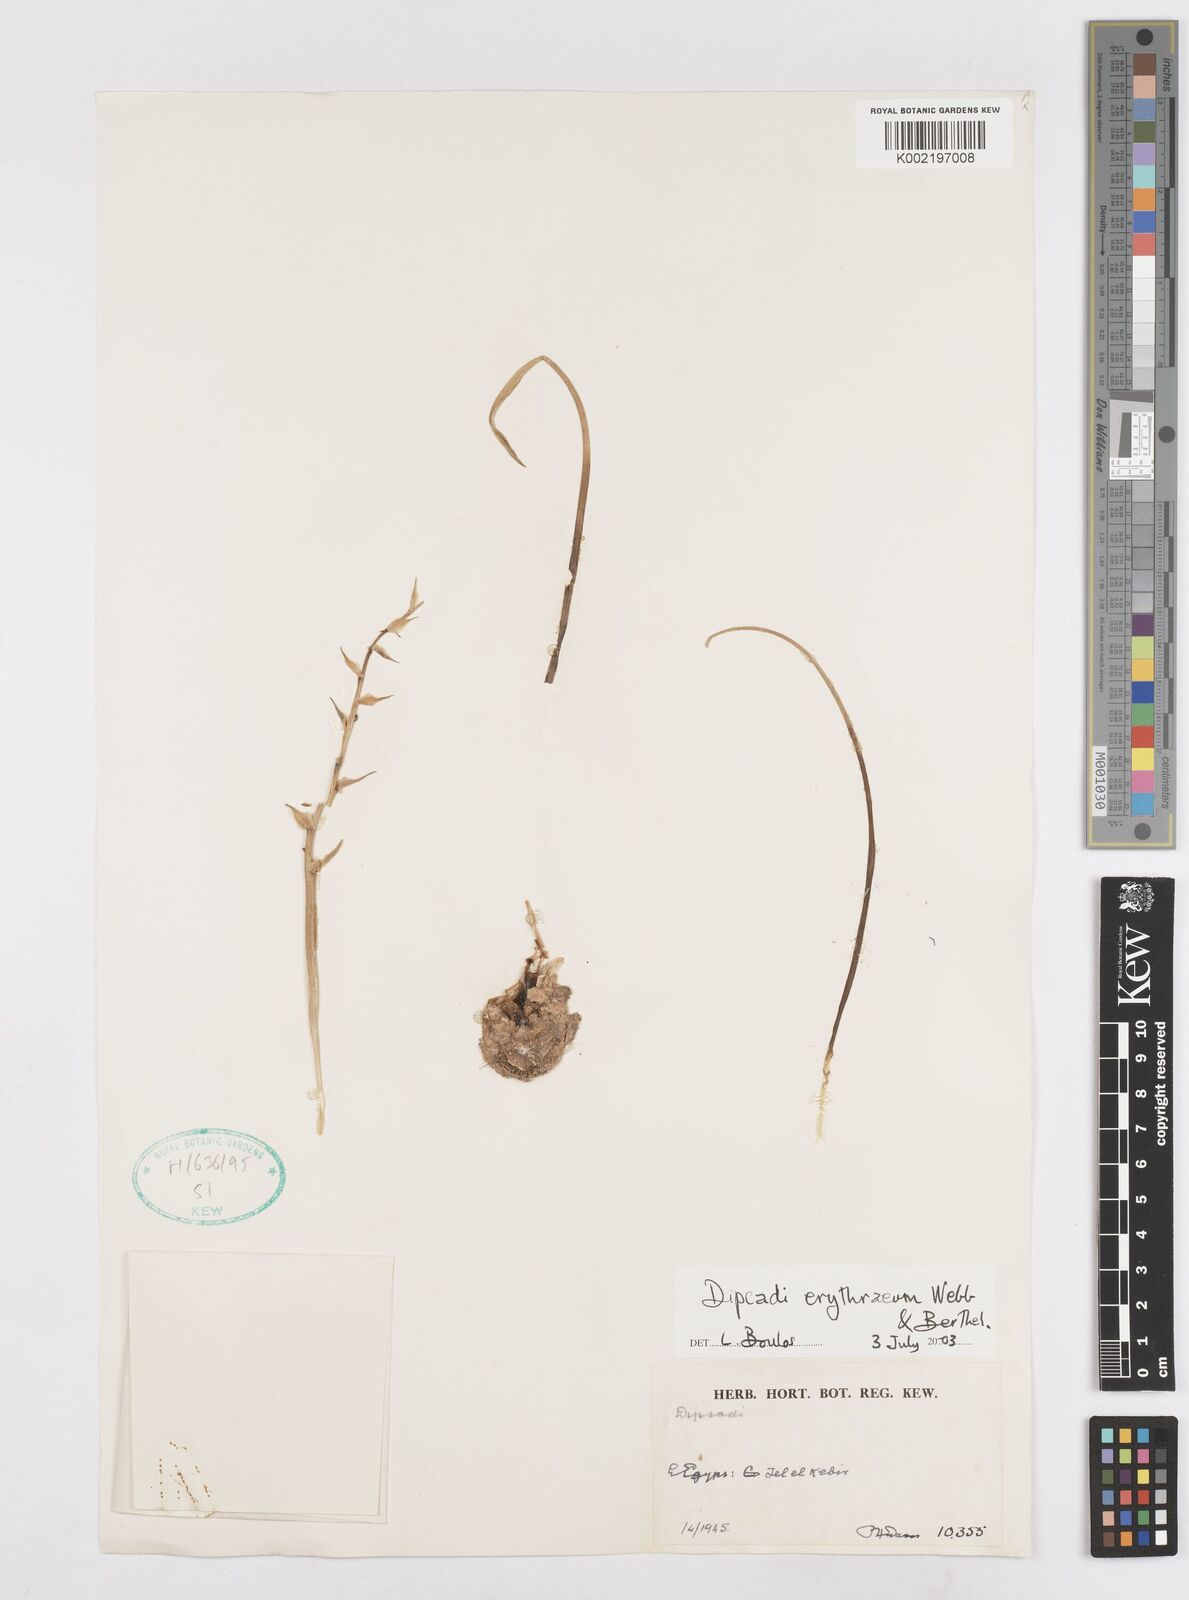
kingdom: Plantae
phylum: Tracheophyta
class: Liliopsida
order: Asparagales
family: Asparagaceae
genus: Dipcadi
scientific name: Dipcadi erythraeum
